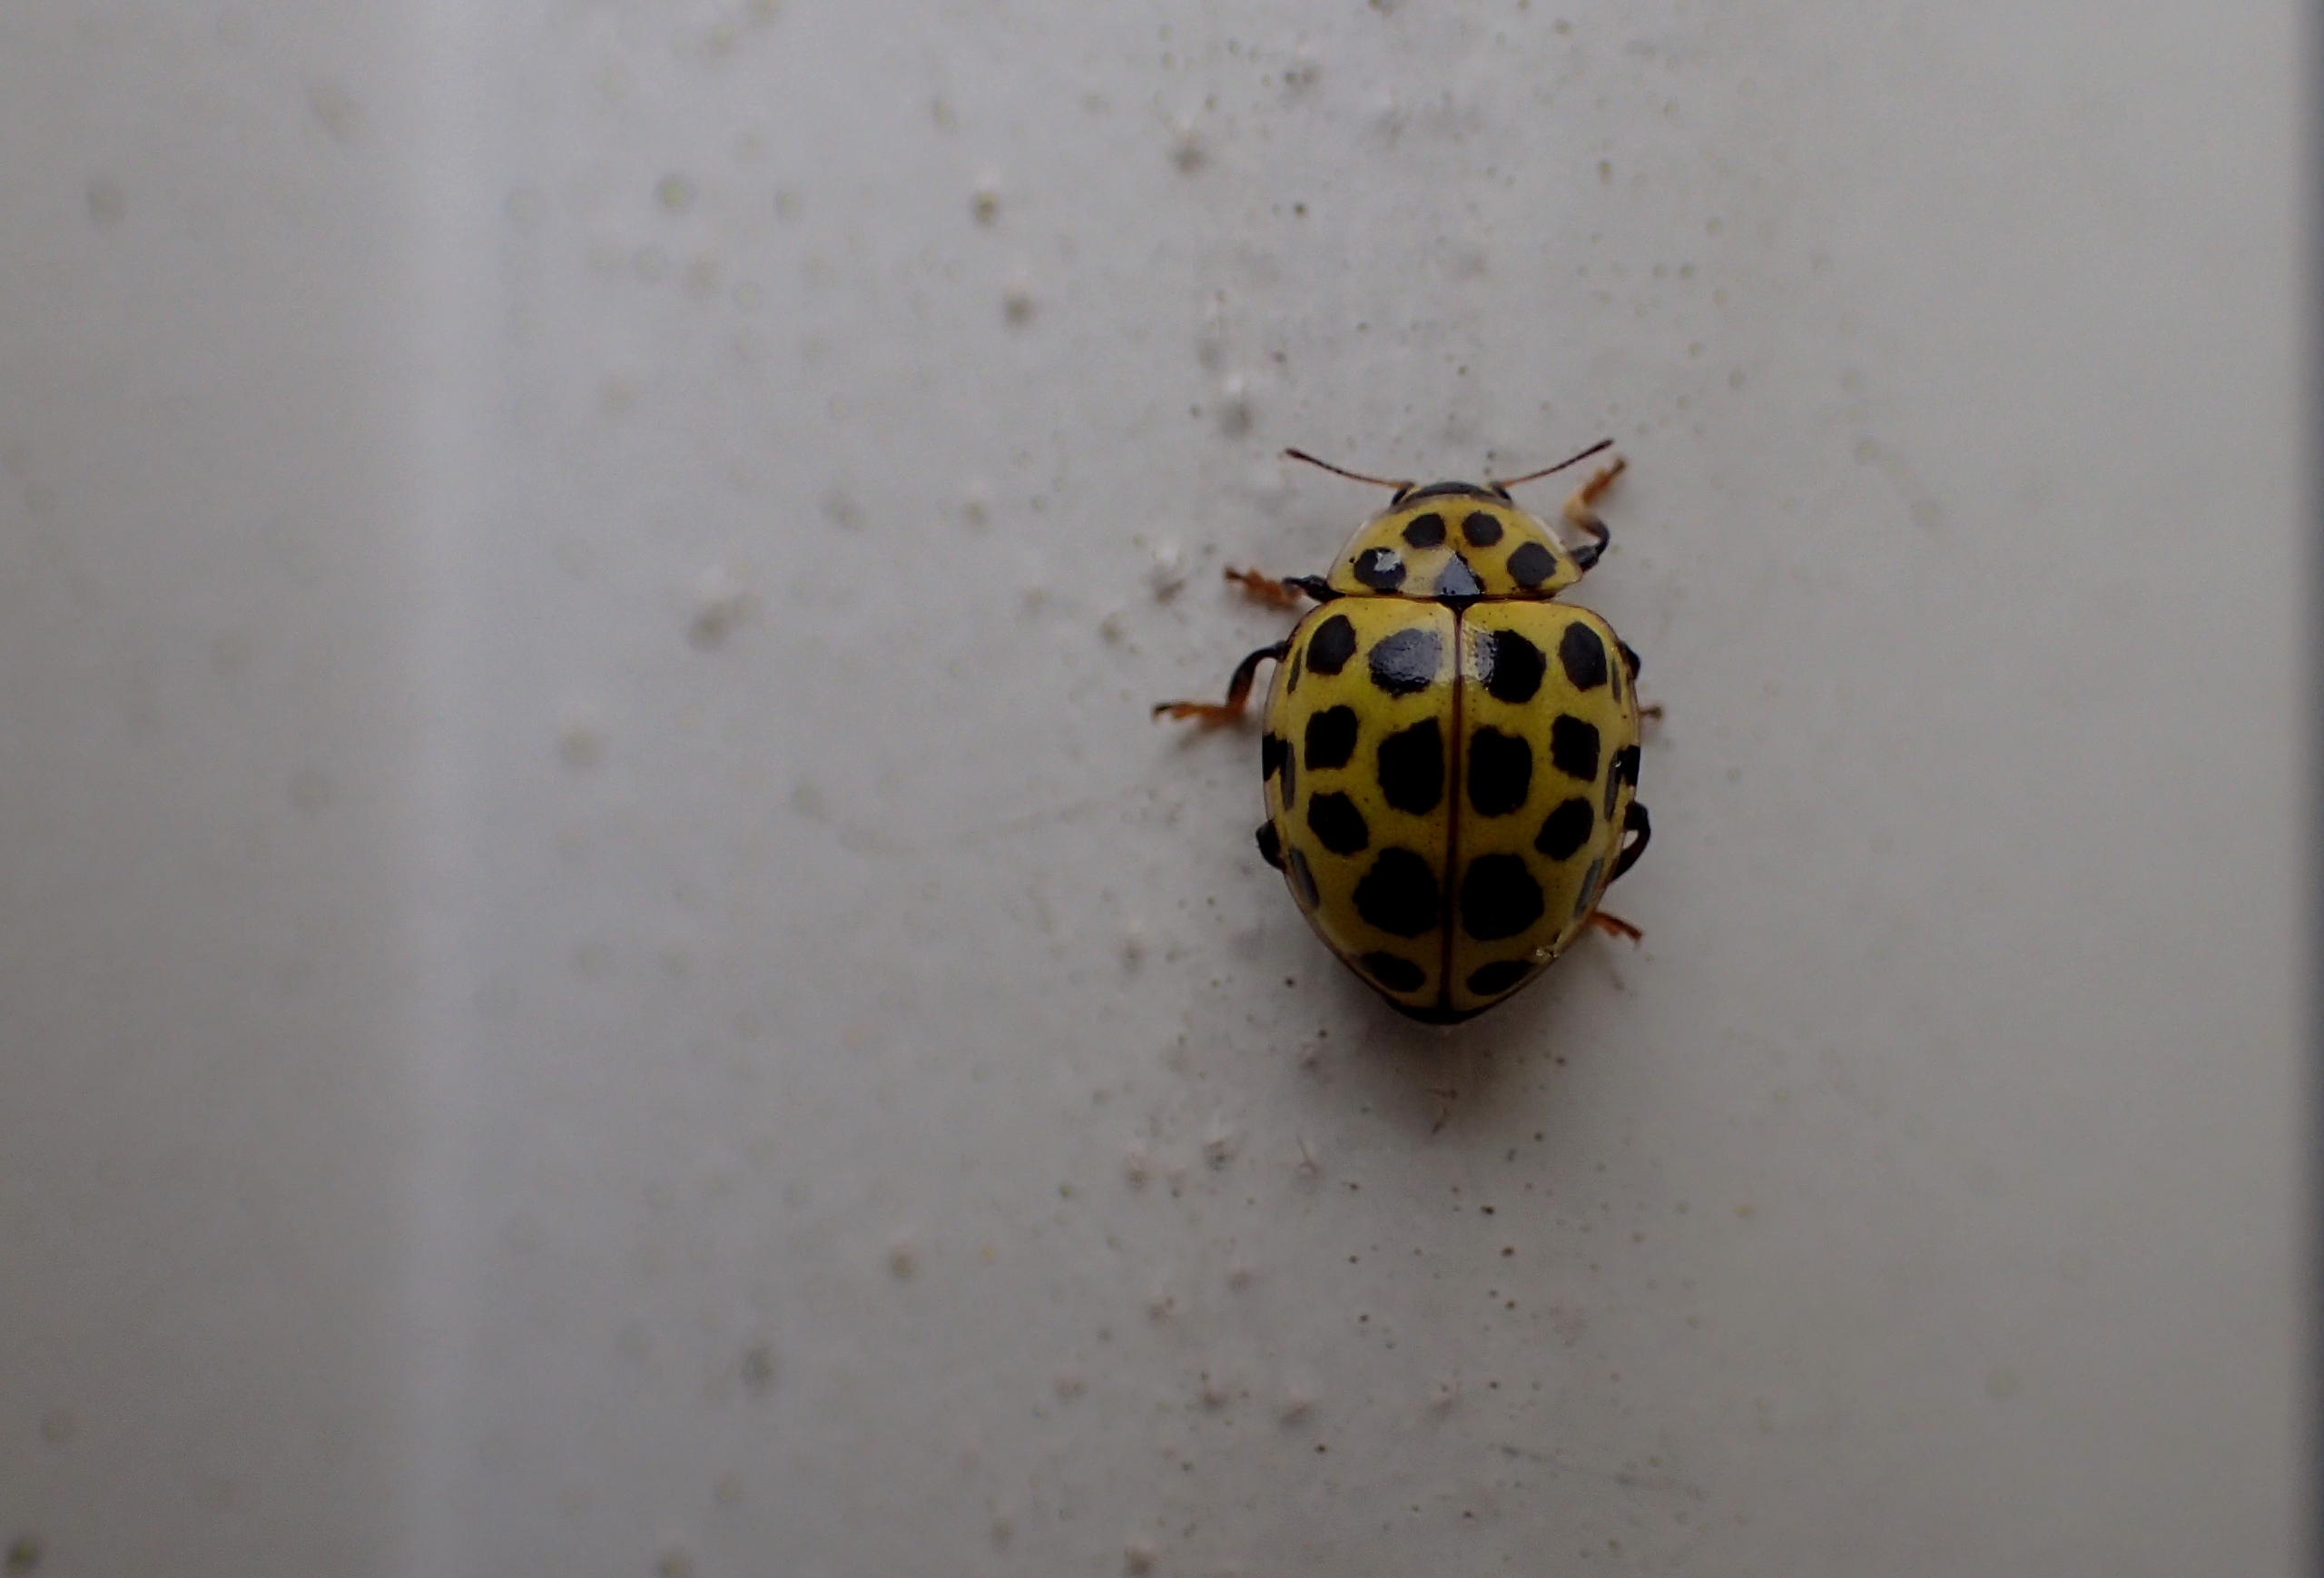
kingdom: Animalia
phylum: Arthropoda
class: Insecta
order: Coleoptera
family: Coccinellidae
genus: Psyllobora
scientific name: Psyllobora vigintiduopunctata
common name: Toogtyveplettet mariehøne
